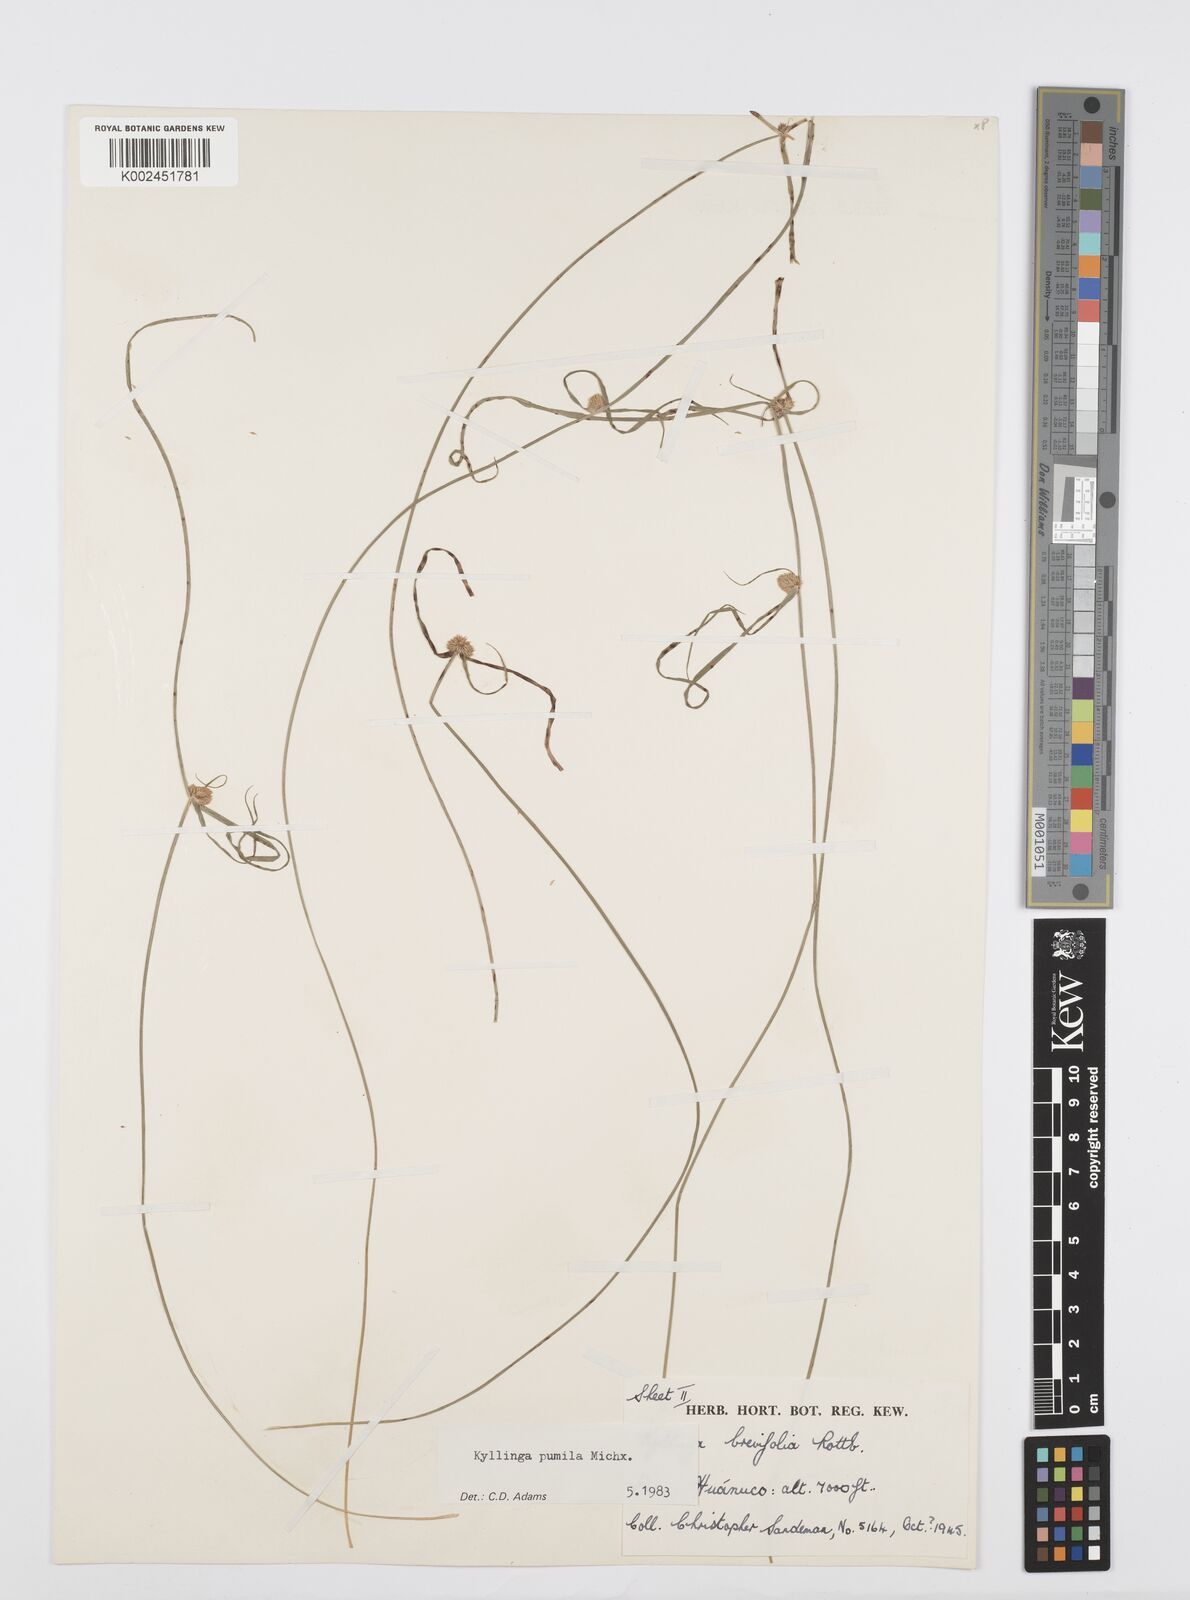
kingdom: Plantae
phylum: Tracheophyta
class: Liliopsida
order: Poales
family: Cyperaceae
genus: Cyperus
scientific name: Cyperus
